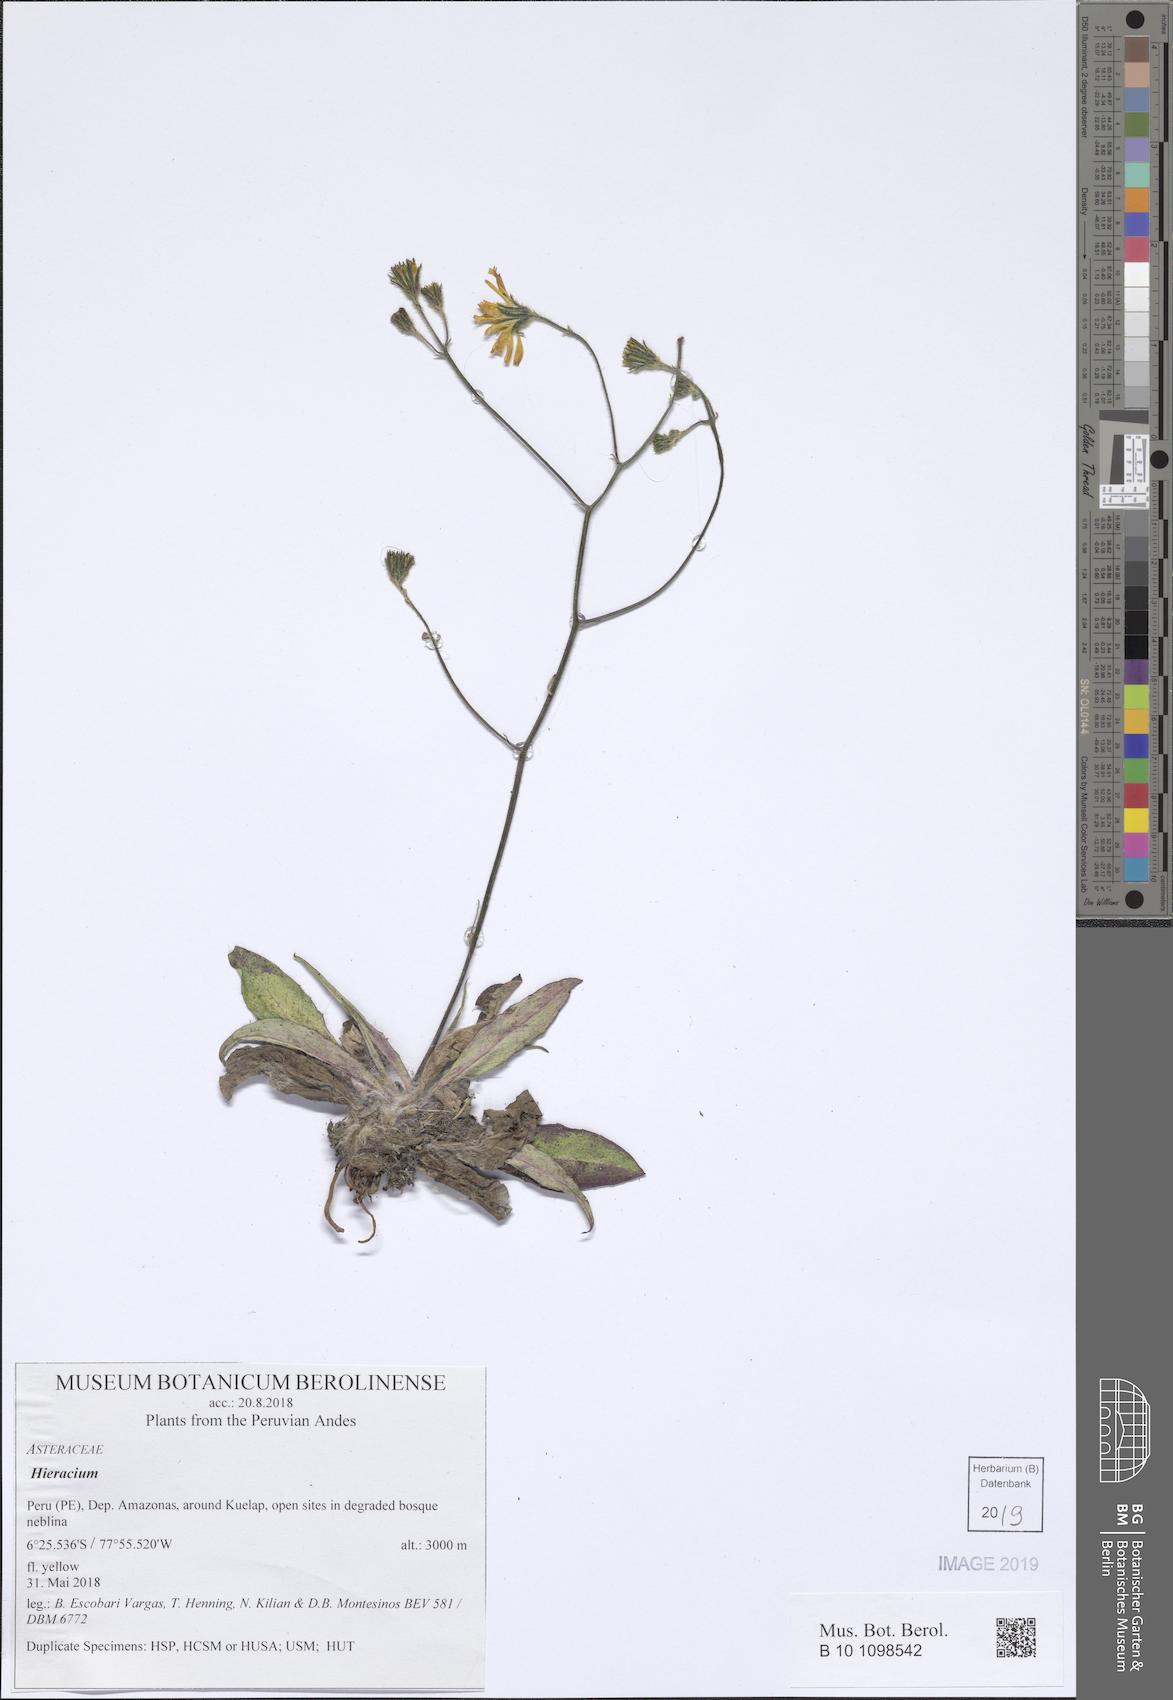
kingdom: Plantae
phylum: Tracheophyta
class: Magnoliopsida
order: Asterales
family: Asteraceae
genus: Hieracium
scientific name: Hieracium
